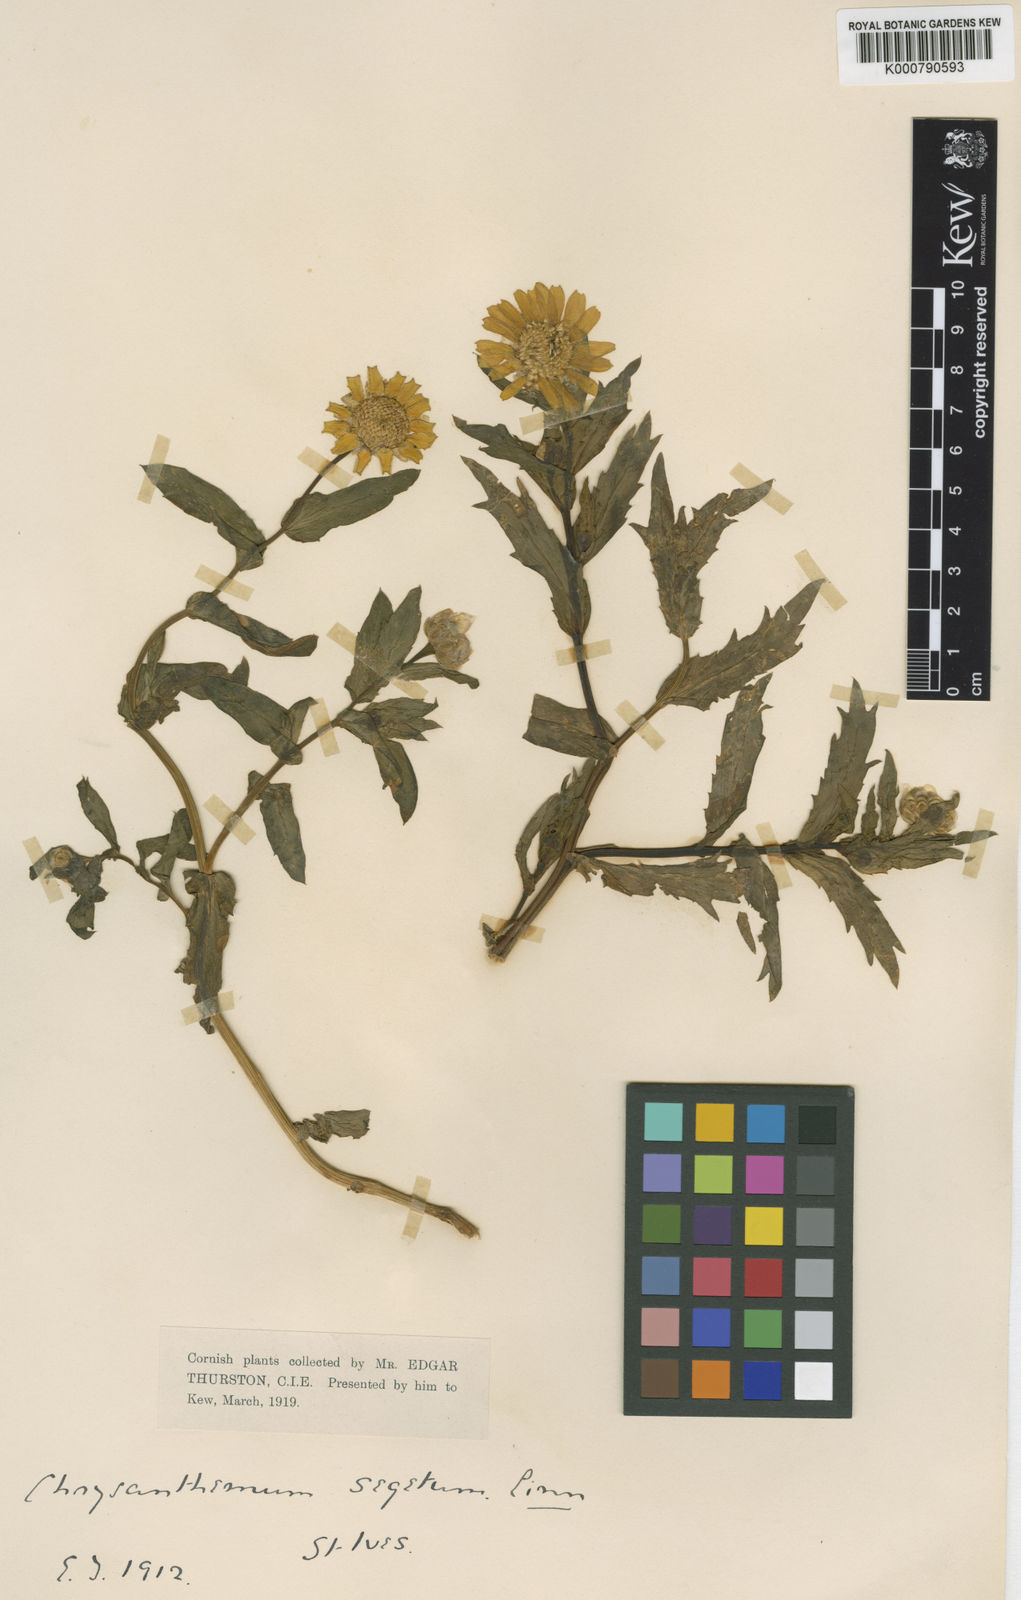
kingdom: Plantae
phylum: Tracheophyta
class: Magnoliopsida
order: Asterales
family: Asteraceae
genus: Glebionis
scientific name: Glebionis
